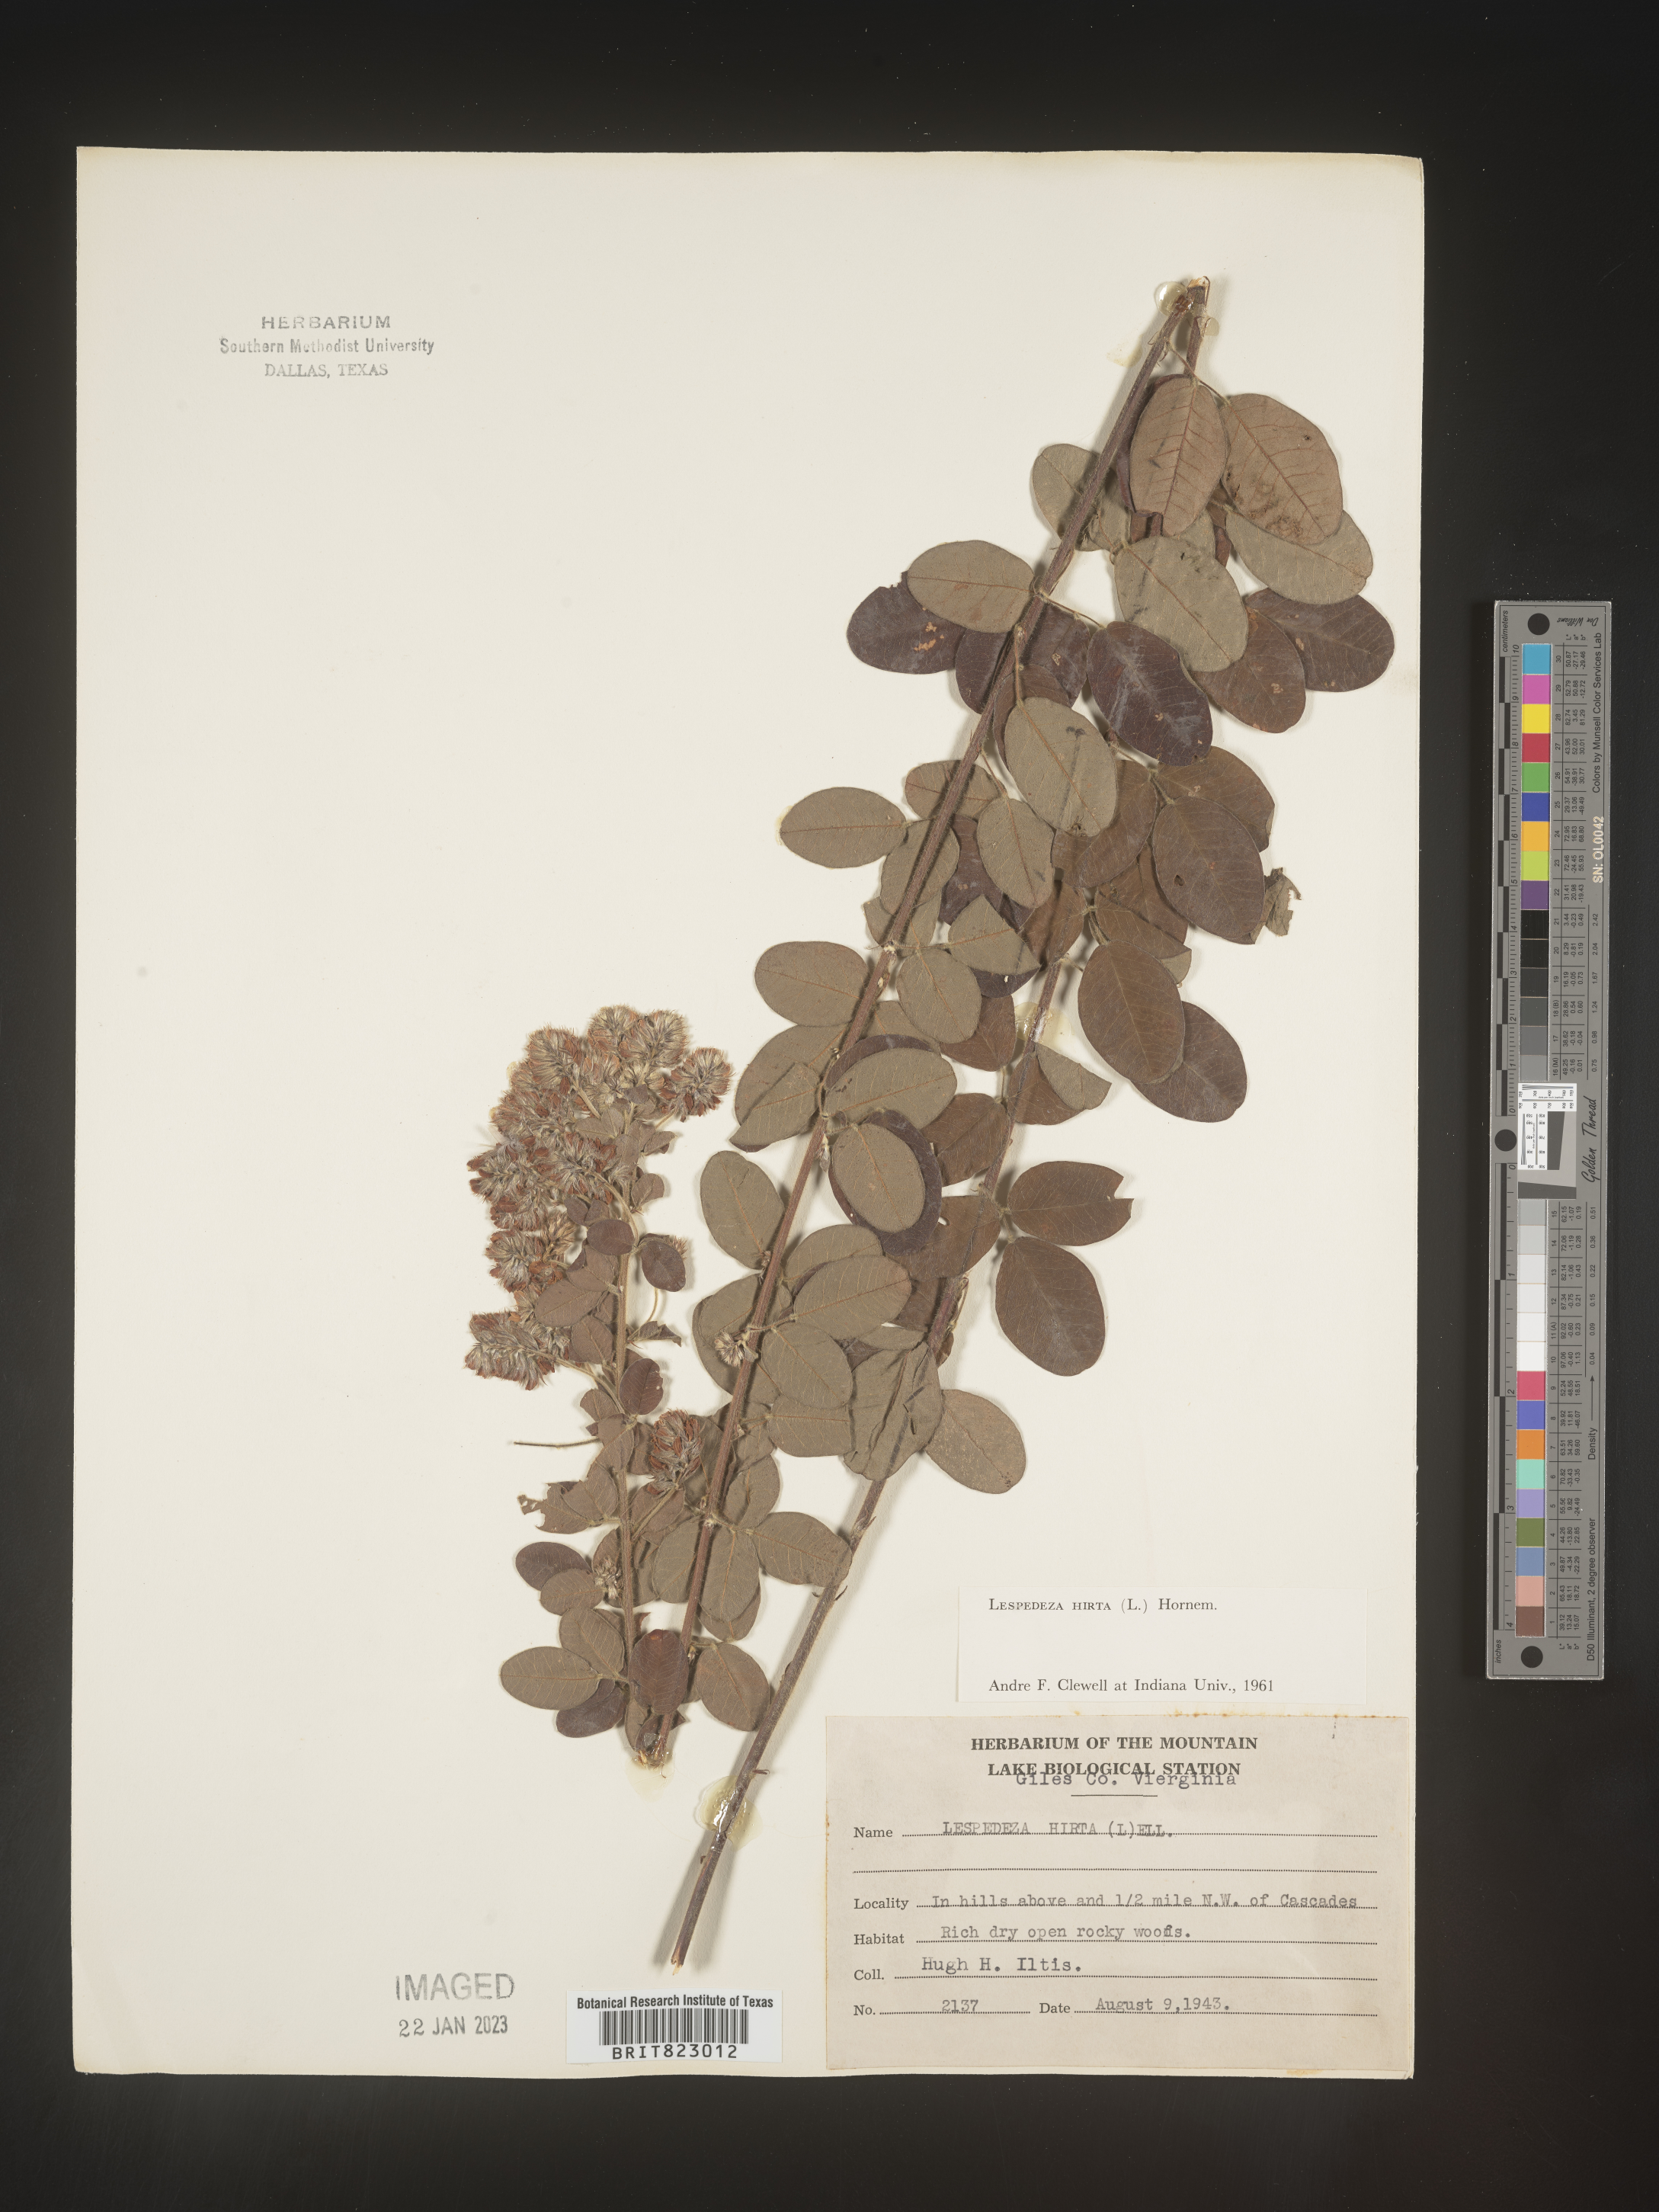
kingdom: Plantae
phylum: Tracheophyta
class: Magnoliopsida
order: Fabales
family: Fabaceae
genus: Lespedeza
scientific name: Lespedeza hirta
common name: Hairy lespedeza
